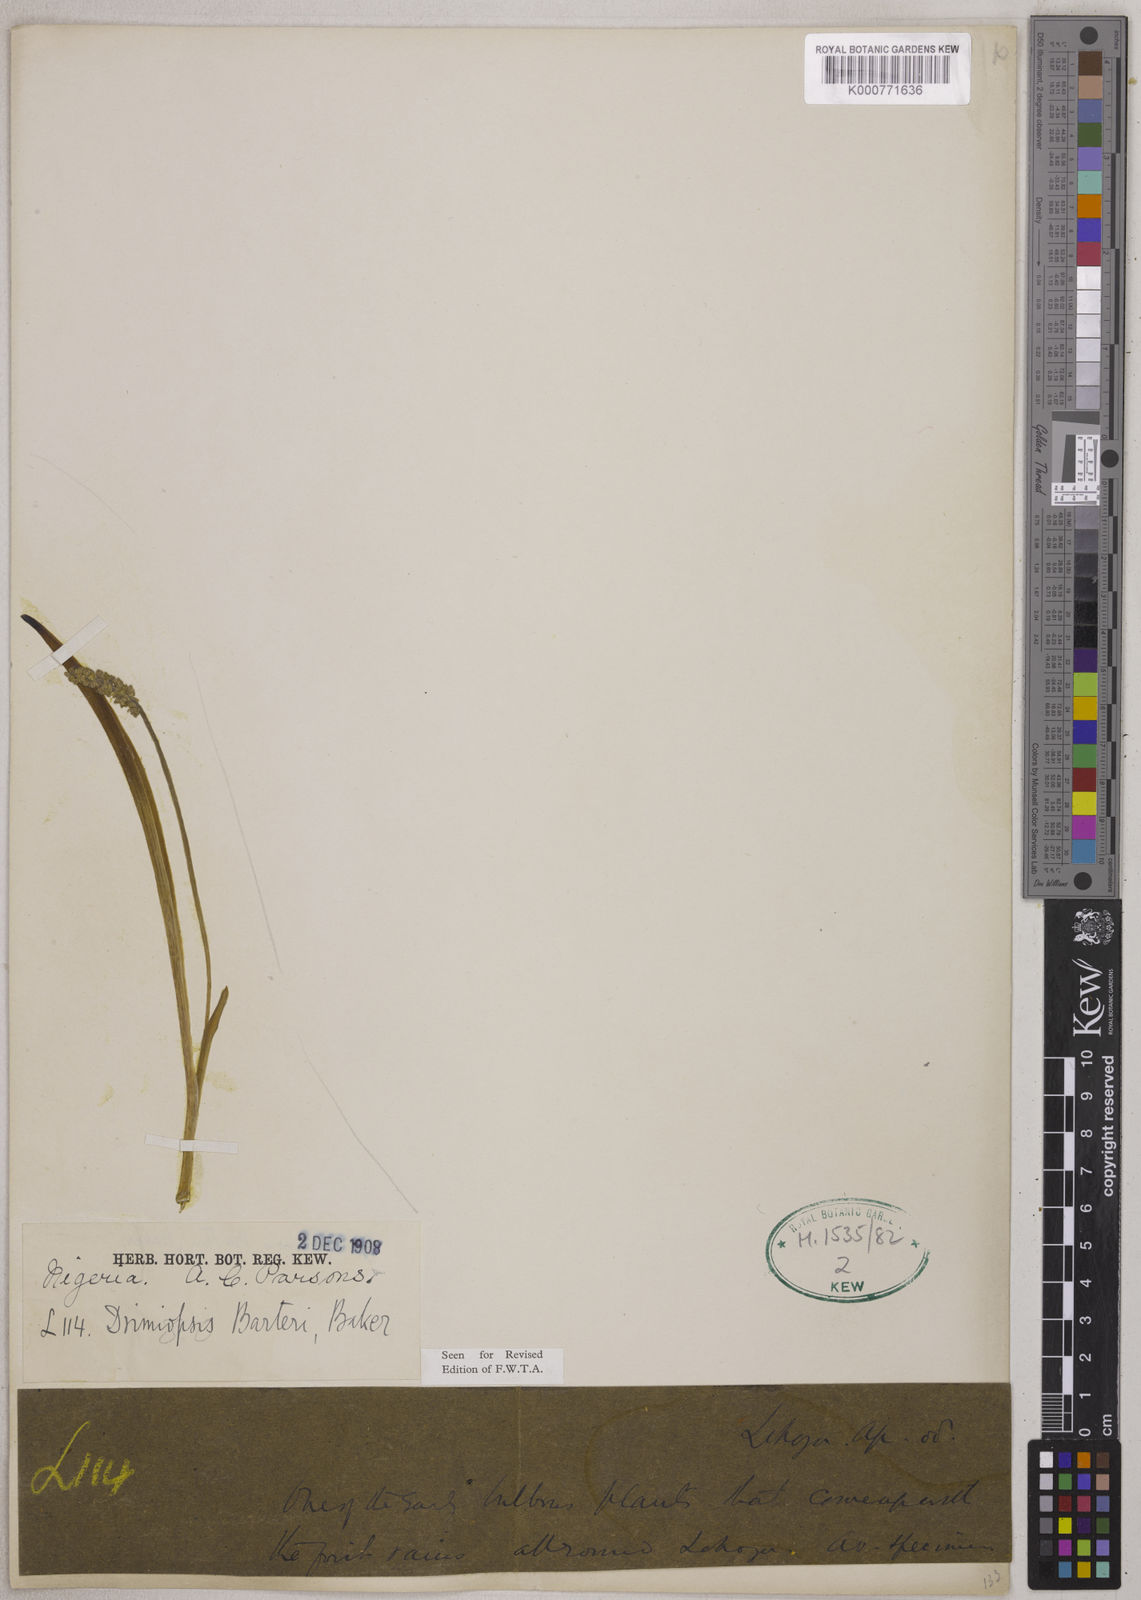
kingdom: Plantae
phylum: Tracheophyta
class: Liliopsida
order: Asparagales
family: Asparagaceae
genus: Drimiopsis
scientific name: Drimiopsis barteri
